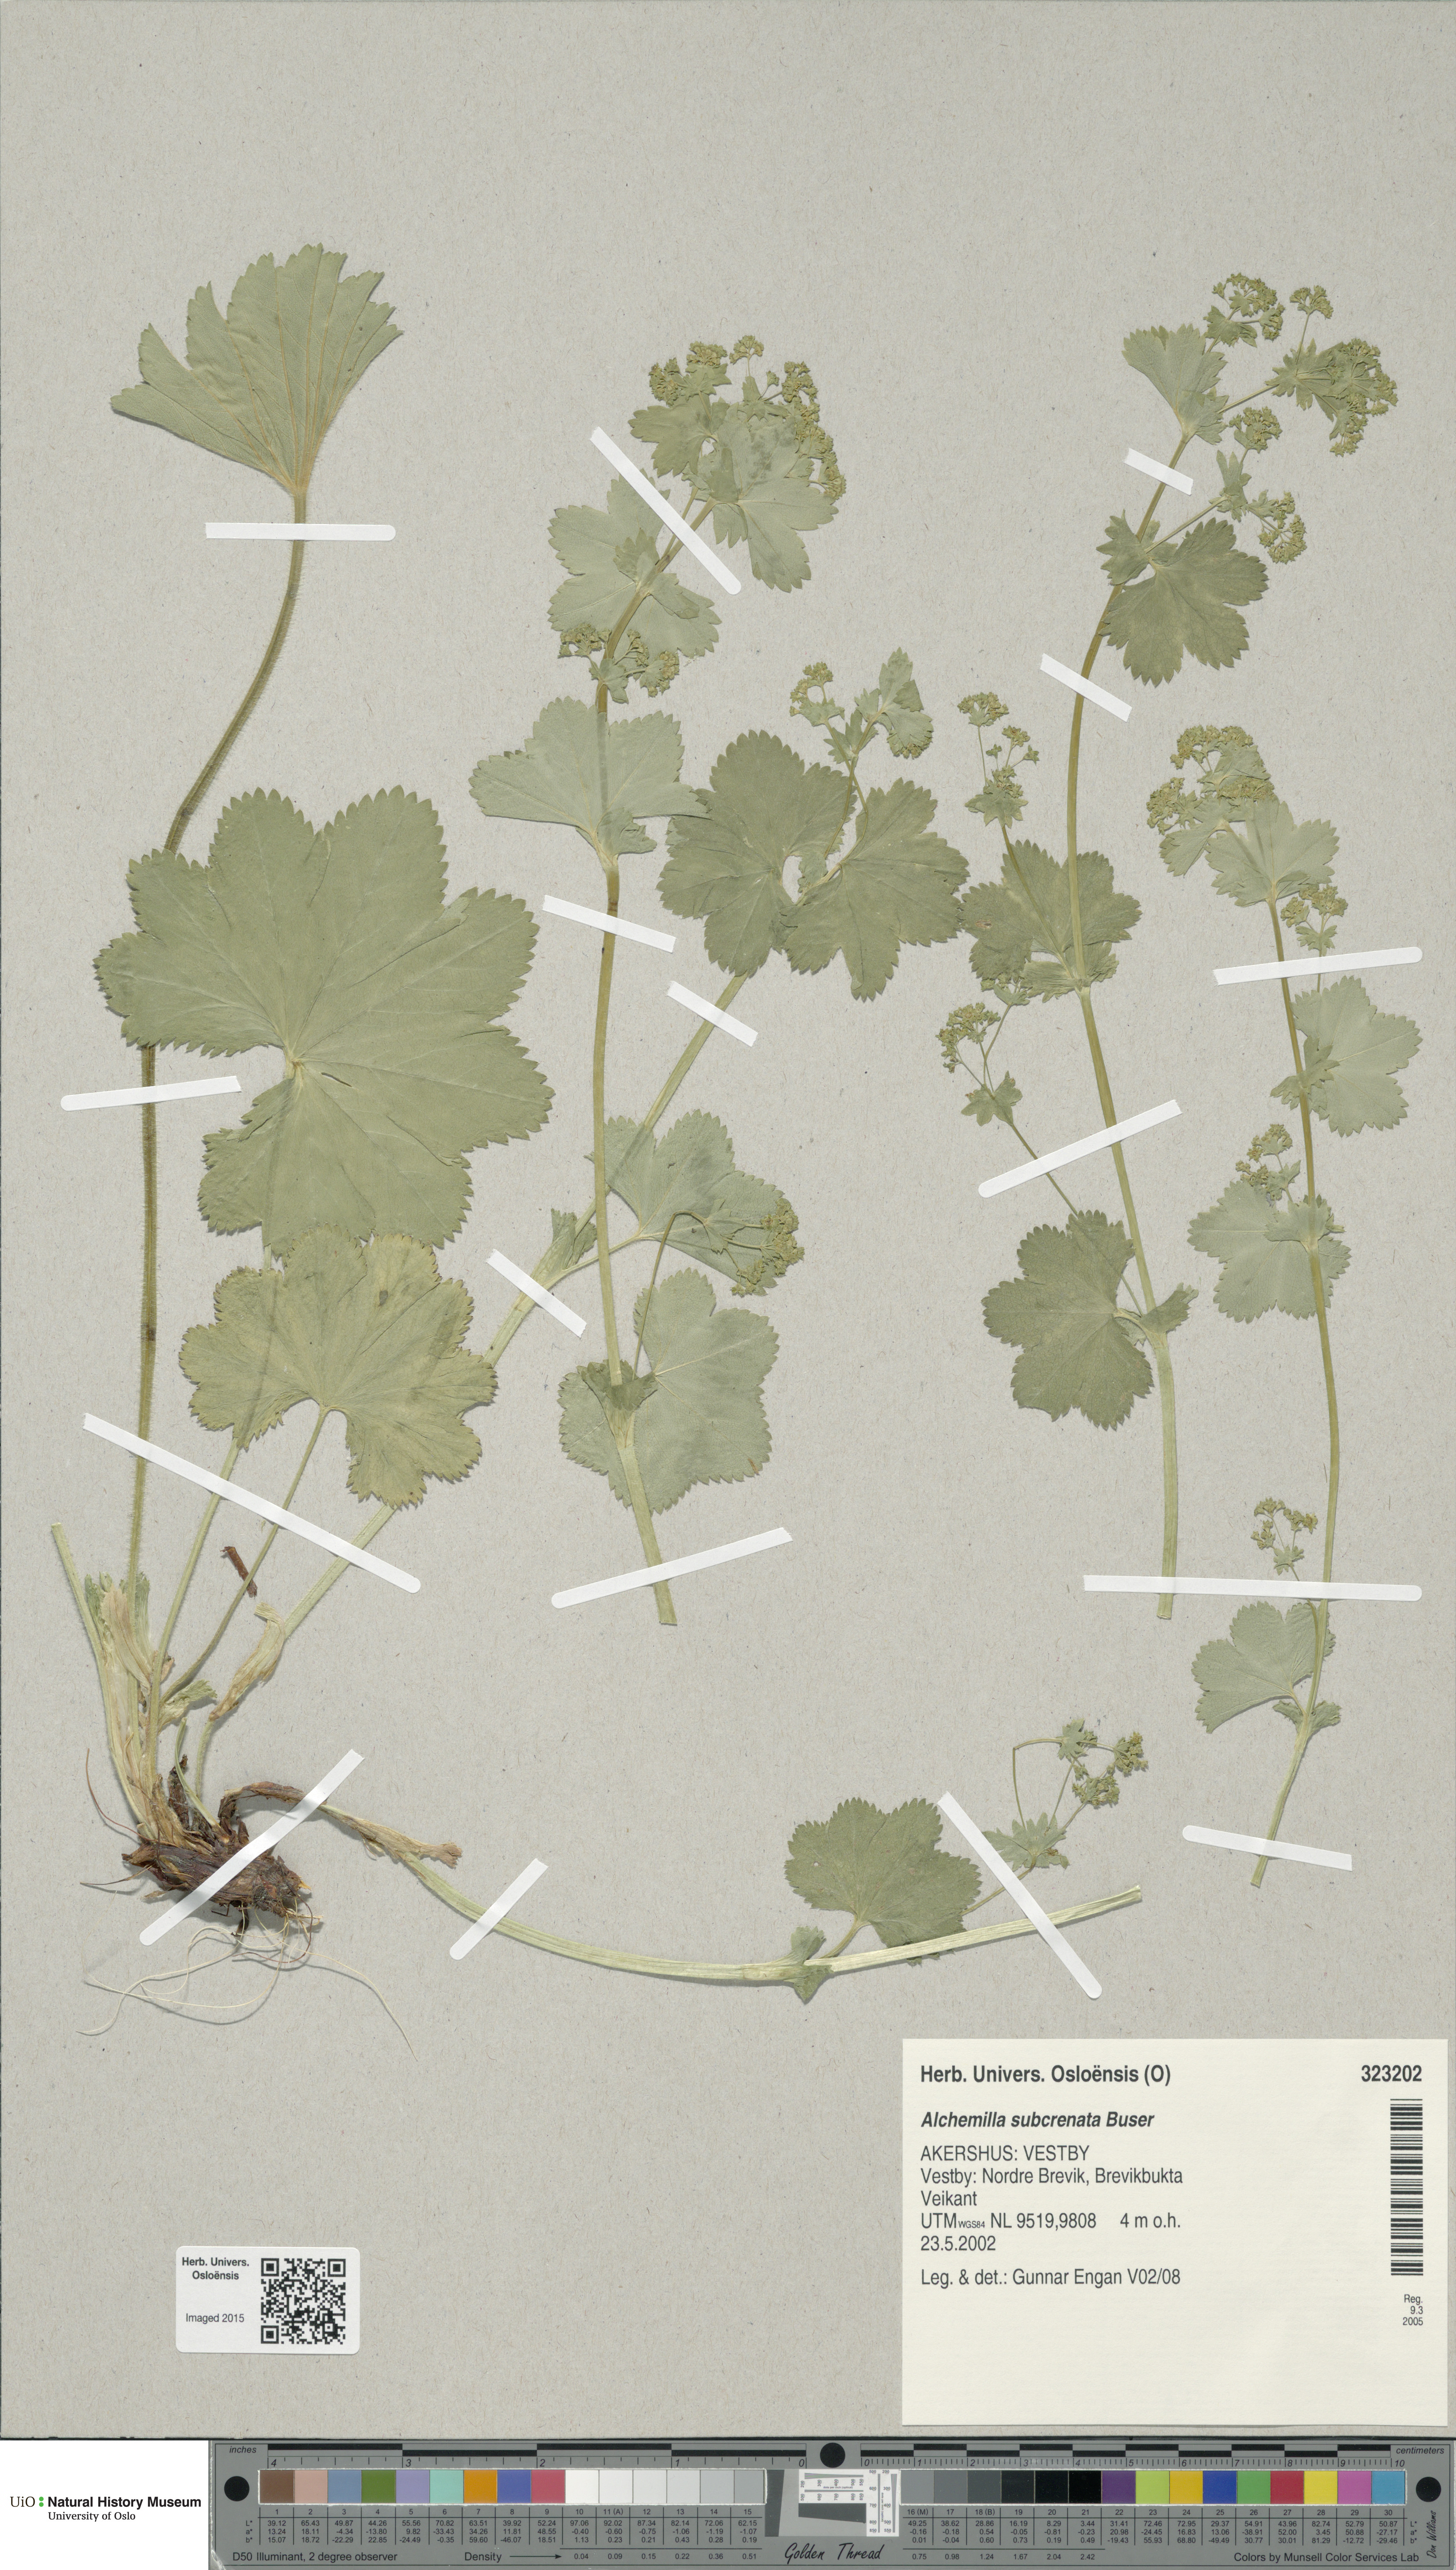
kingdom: Plantae
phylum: Tracheophyta
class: Magnoliopsida
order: Rosales
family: Rosaceae
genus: Alchemilla
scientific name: Alchemilla subcrenata
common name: Broadtooth lady's mantle
